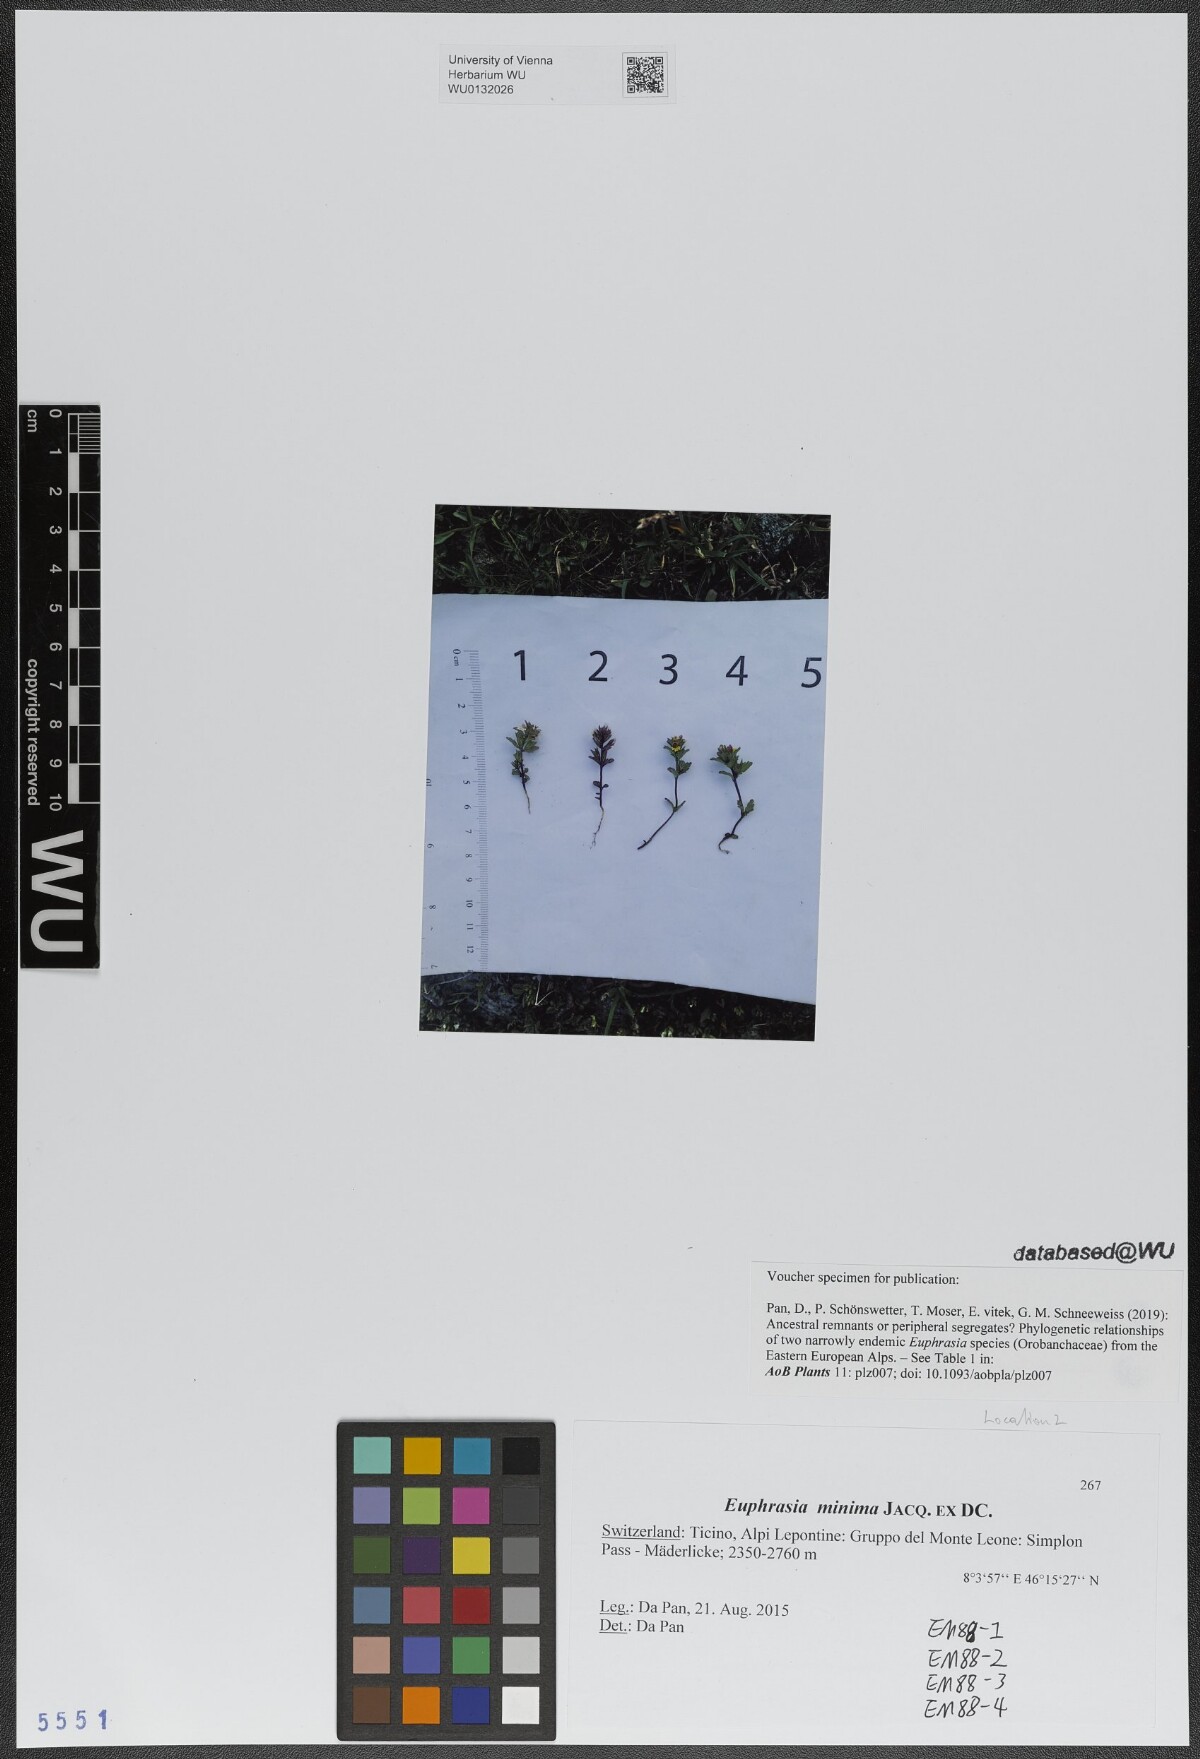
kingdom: Plantae
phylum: Tracheophyta
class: Magnoliopsida
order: Lamiales
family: Orobanchaceae
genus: Euphrasia
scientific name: Euphrasia minima
